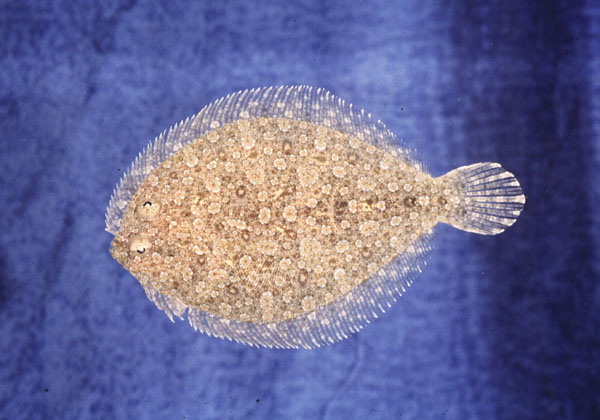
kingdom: Animalia
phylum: Chordata
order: Pleuronectiformes
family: Bothidae
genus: Bothus
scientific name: Bothus podas
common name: Wide-eyed flounder
